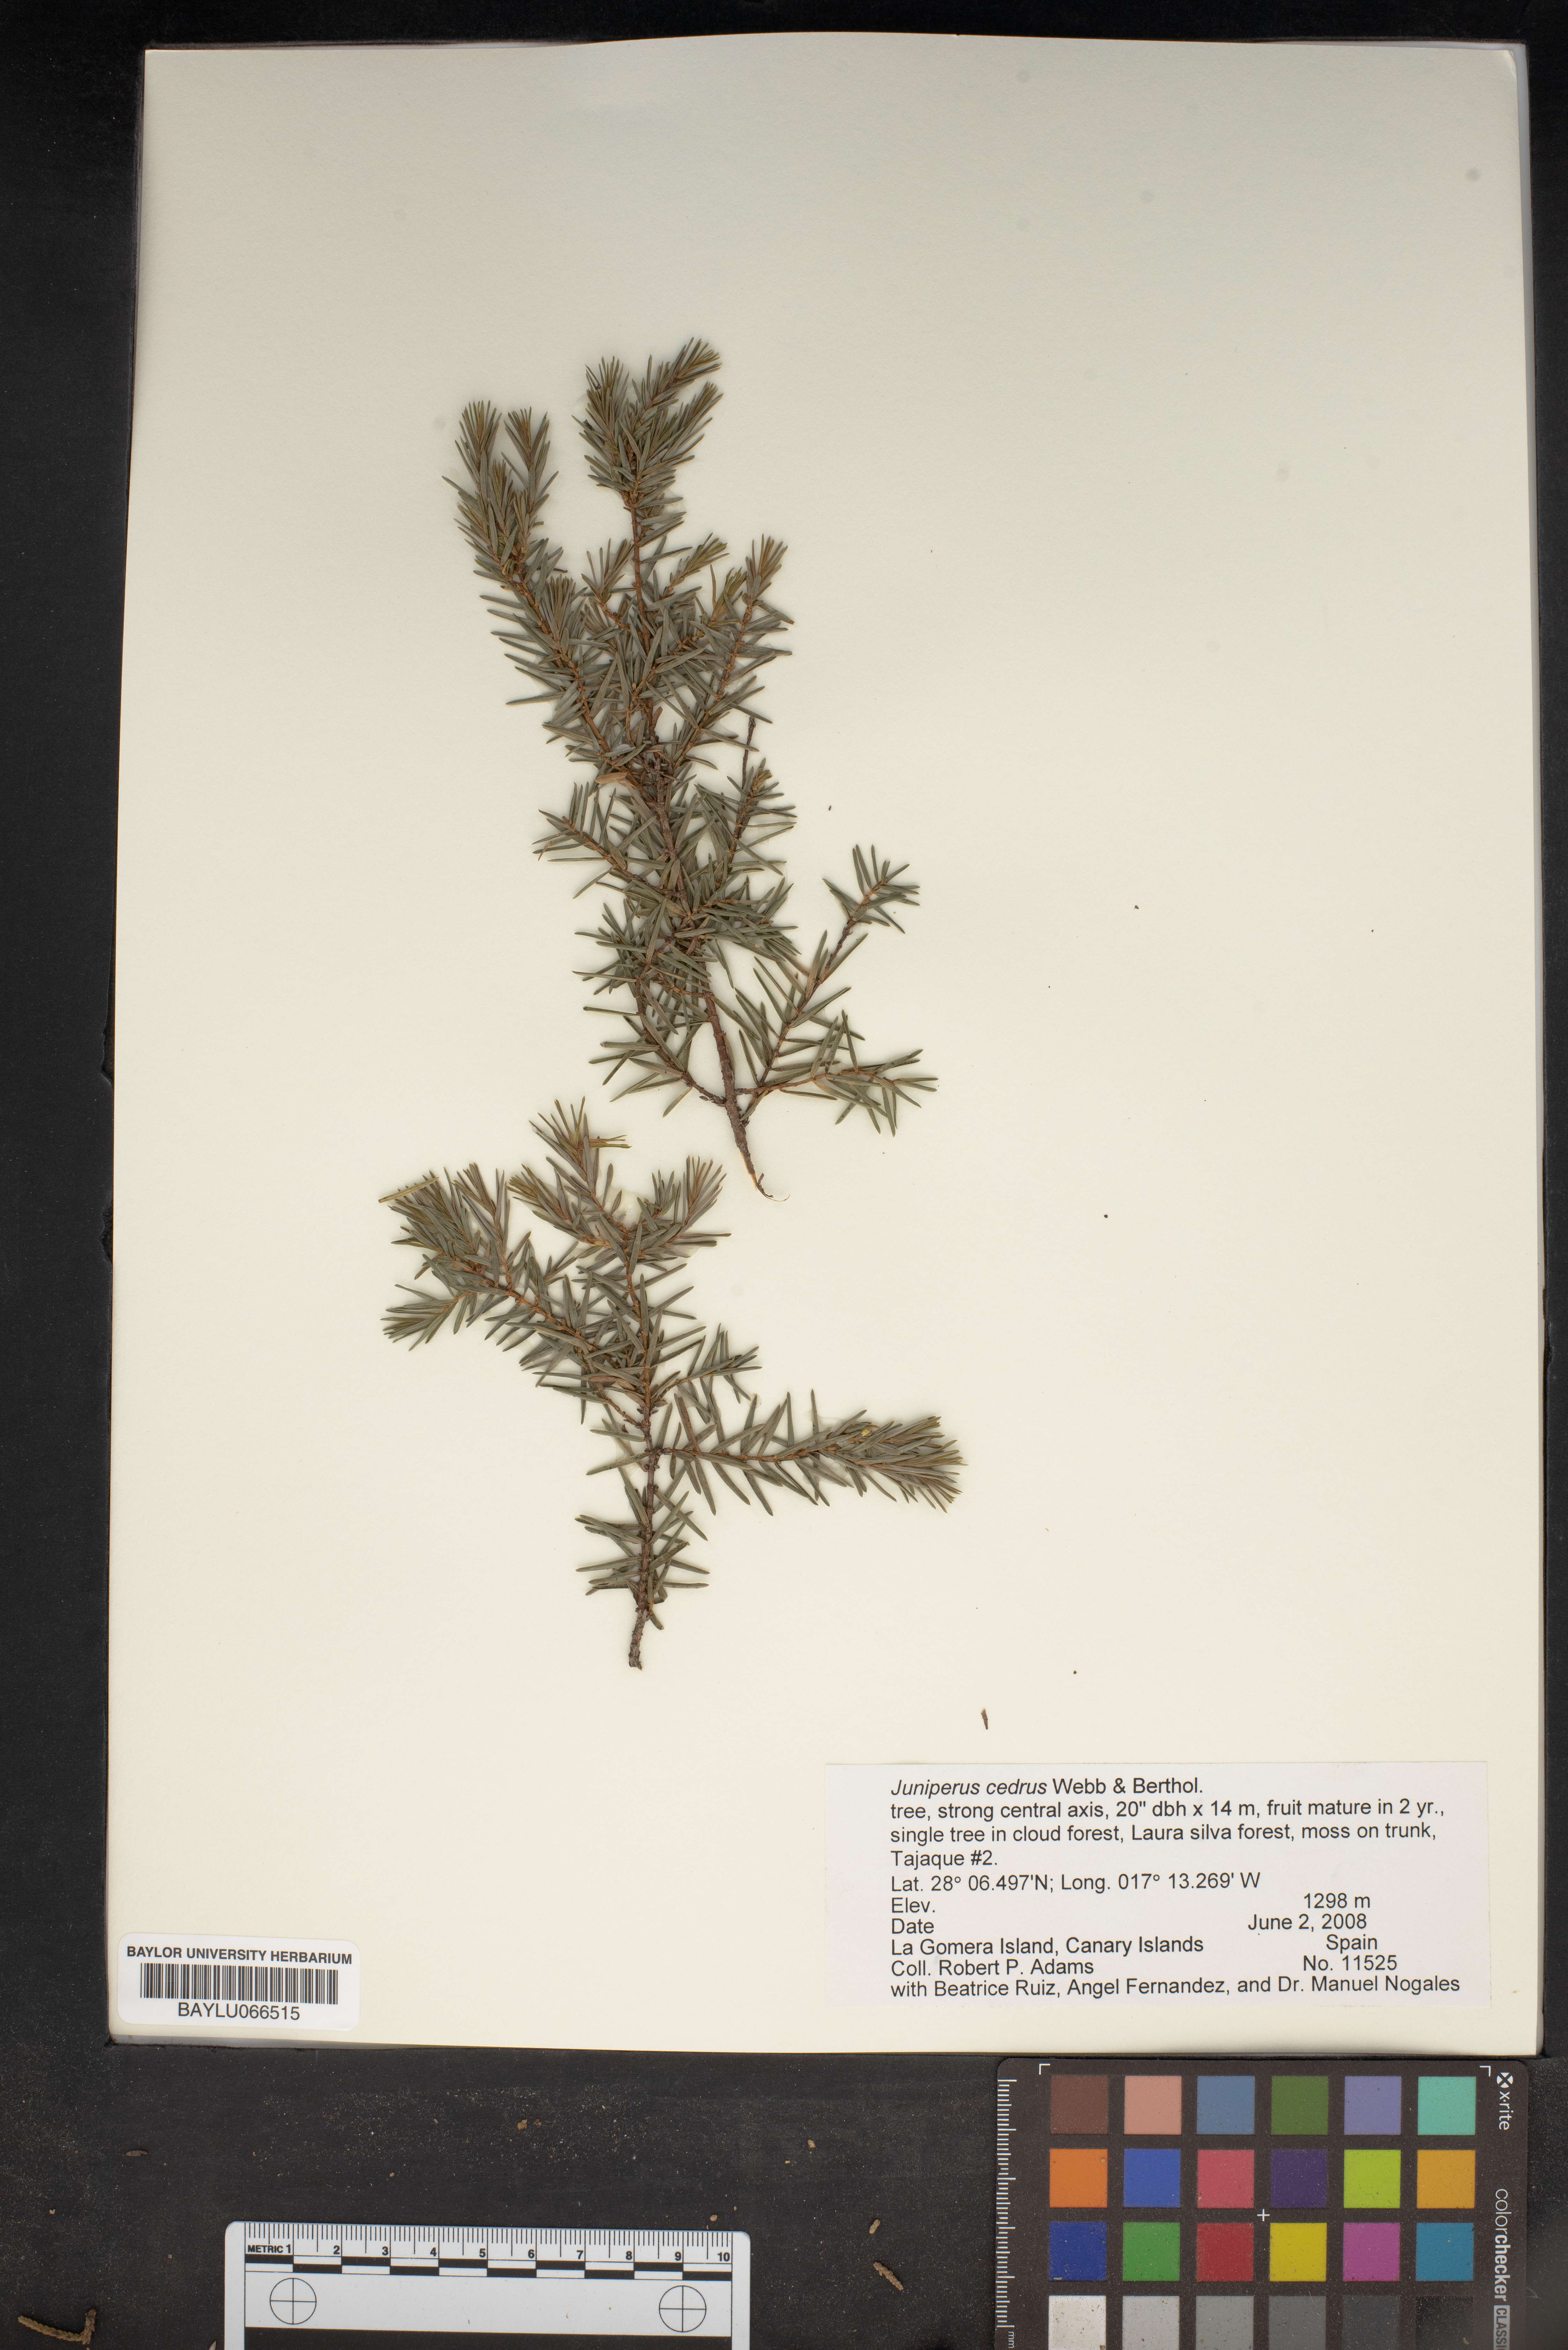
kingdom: Plantae
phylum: Tracheophyta
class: Pinopsida
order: Pinales
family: Cupressaceae
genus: Juniperus
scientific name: Juniperus cedrus
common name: Canary islands juniper
